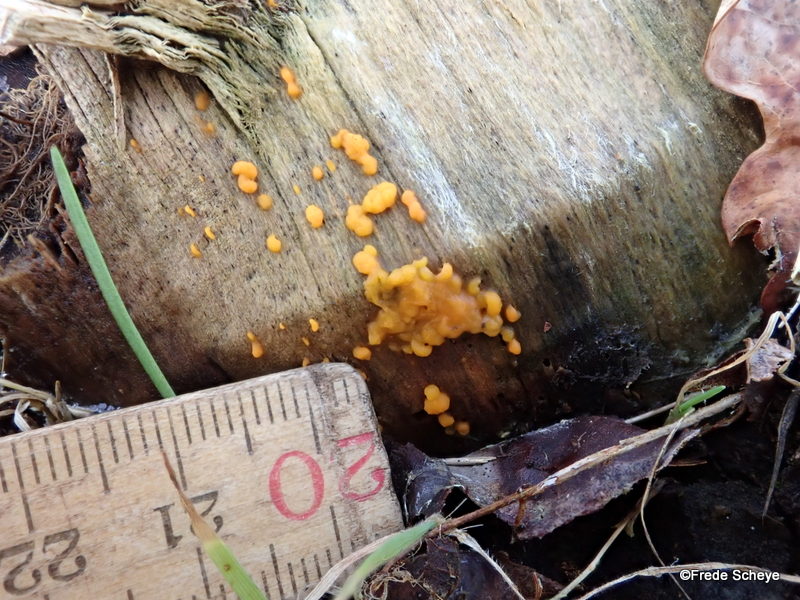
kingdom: Fungi
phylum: Basidiomycota
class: Dacrymycetes
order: Dacrymycetales
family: Dacrymycetaceae
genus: Dacrymyces
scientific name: Dacrymyces stillatus
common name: almindelig tåresvamp
